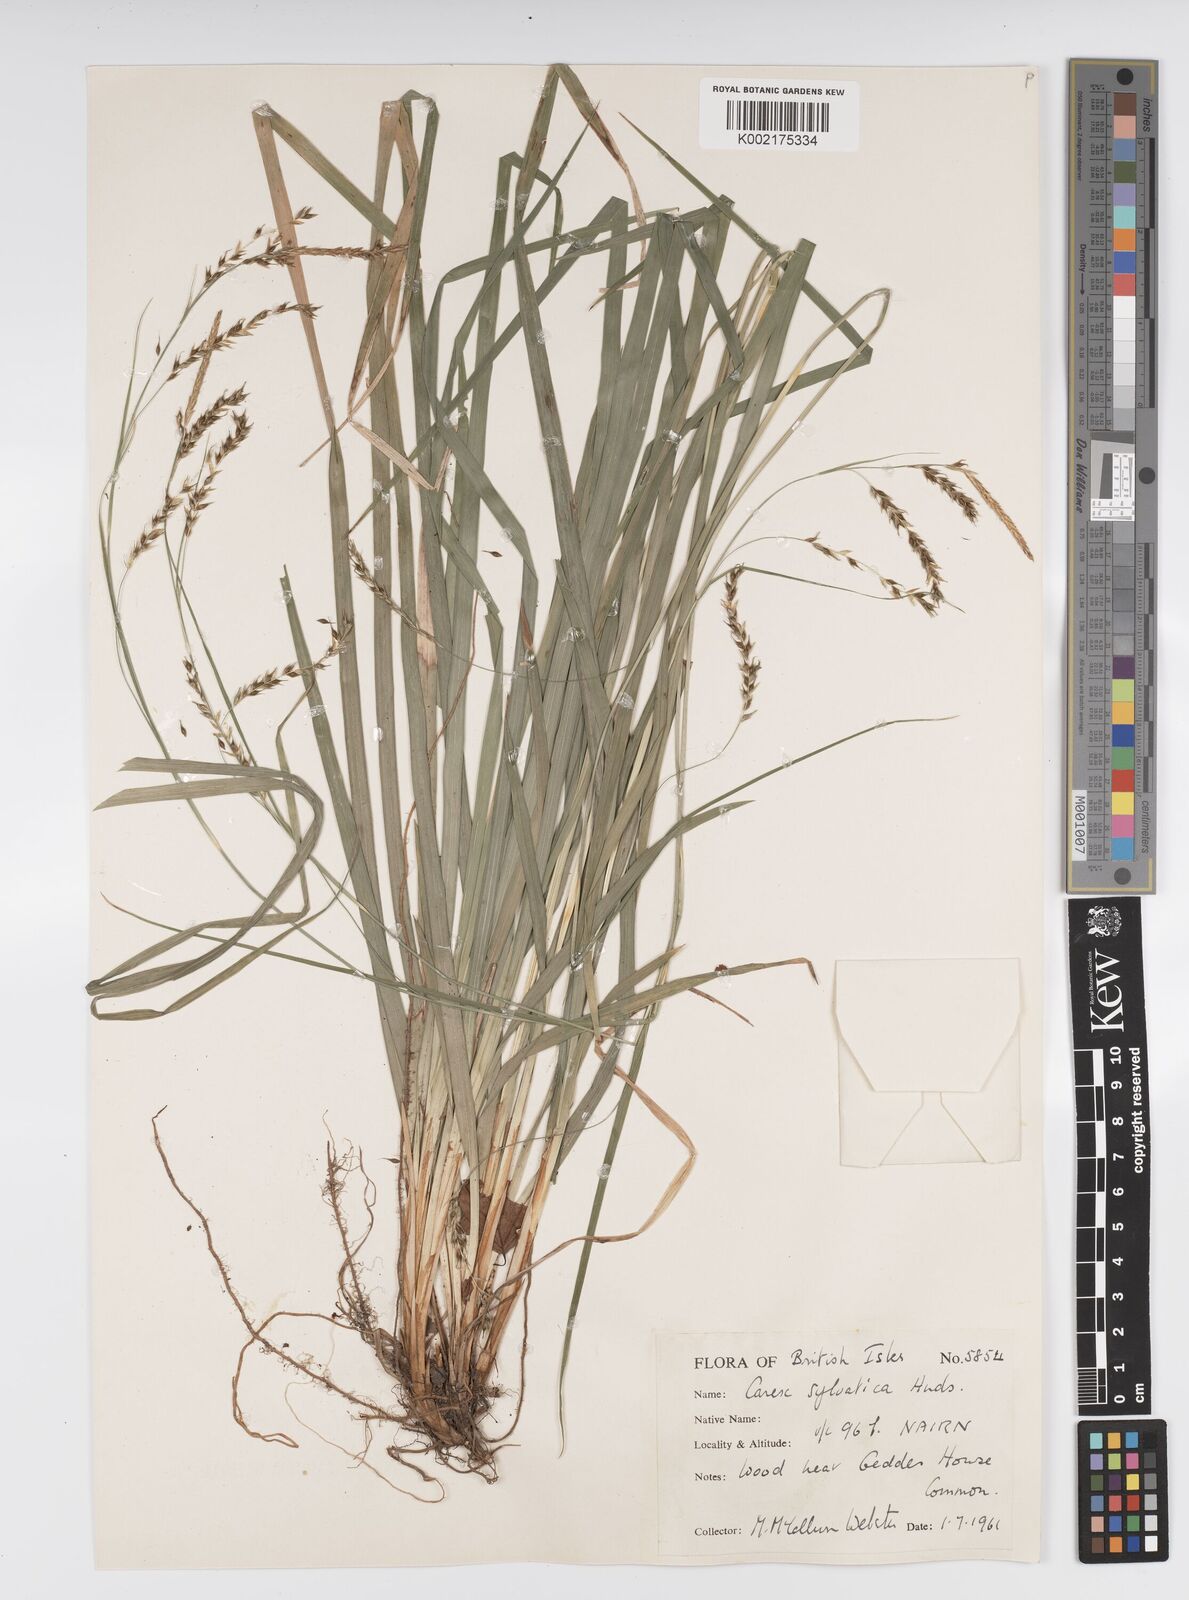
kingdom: Plantae
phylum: Tracheophyta
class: Liliopsida
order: Poales
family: Cyperaceae
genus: Carex
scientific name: Carex sylvatica
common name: Wood-sedge
